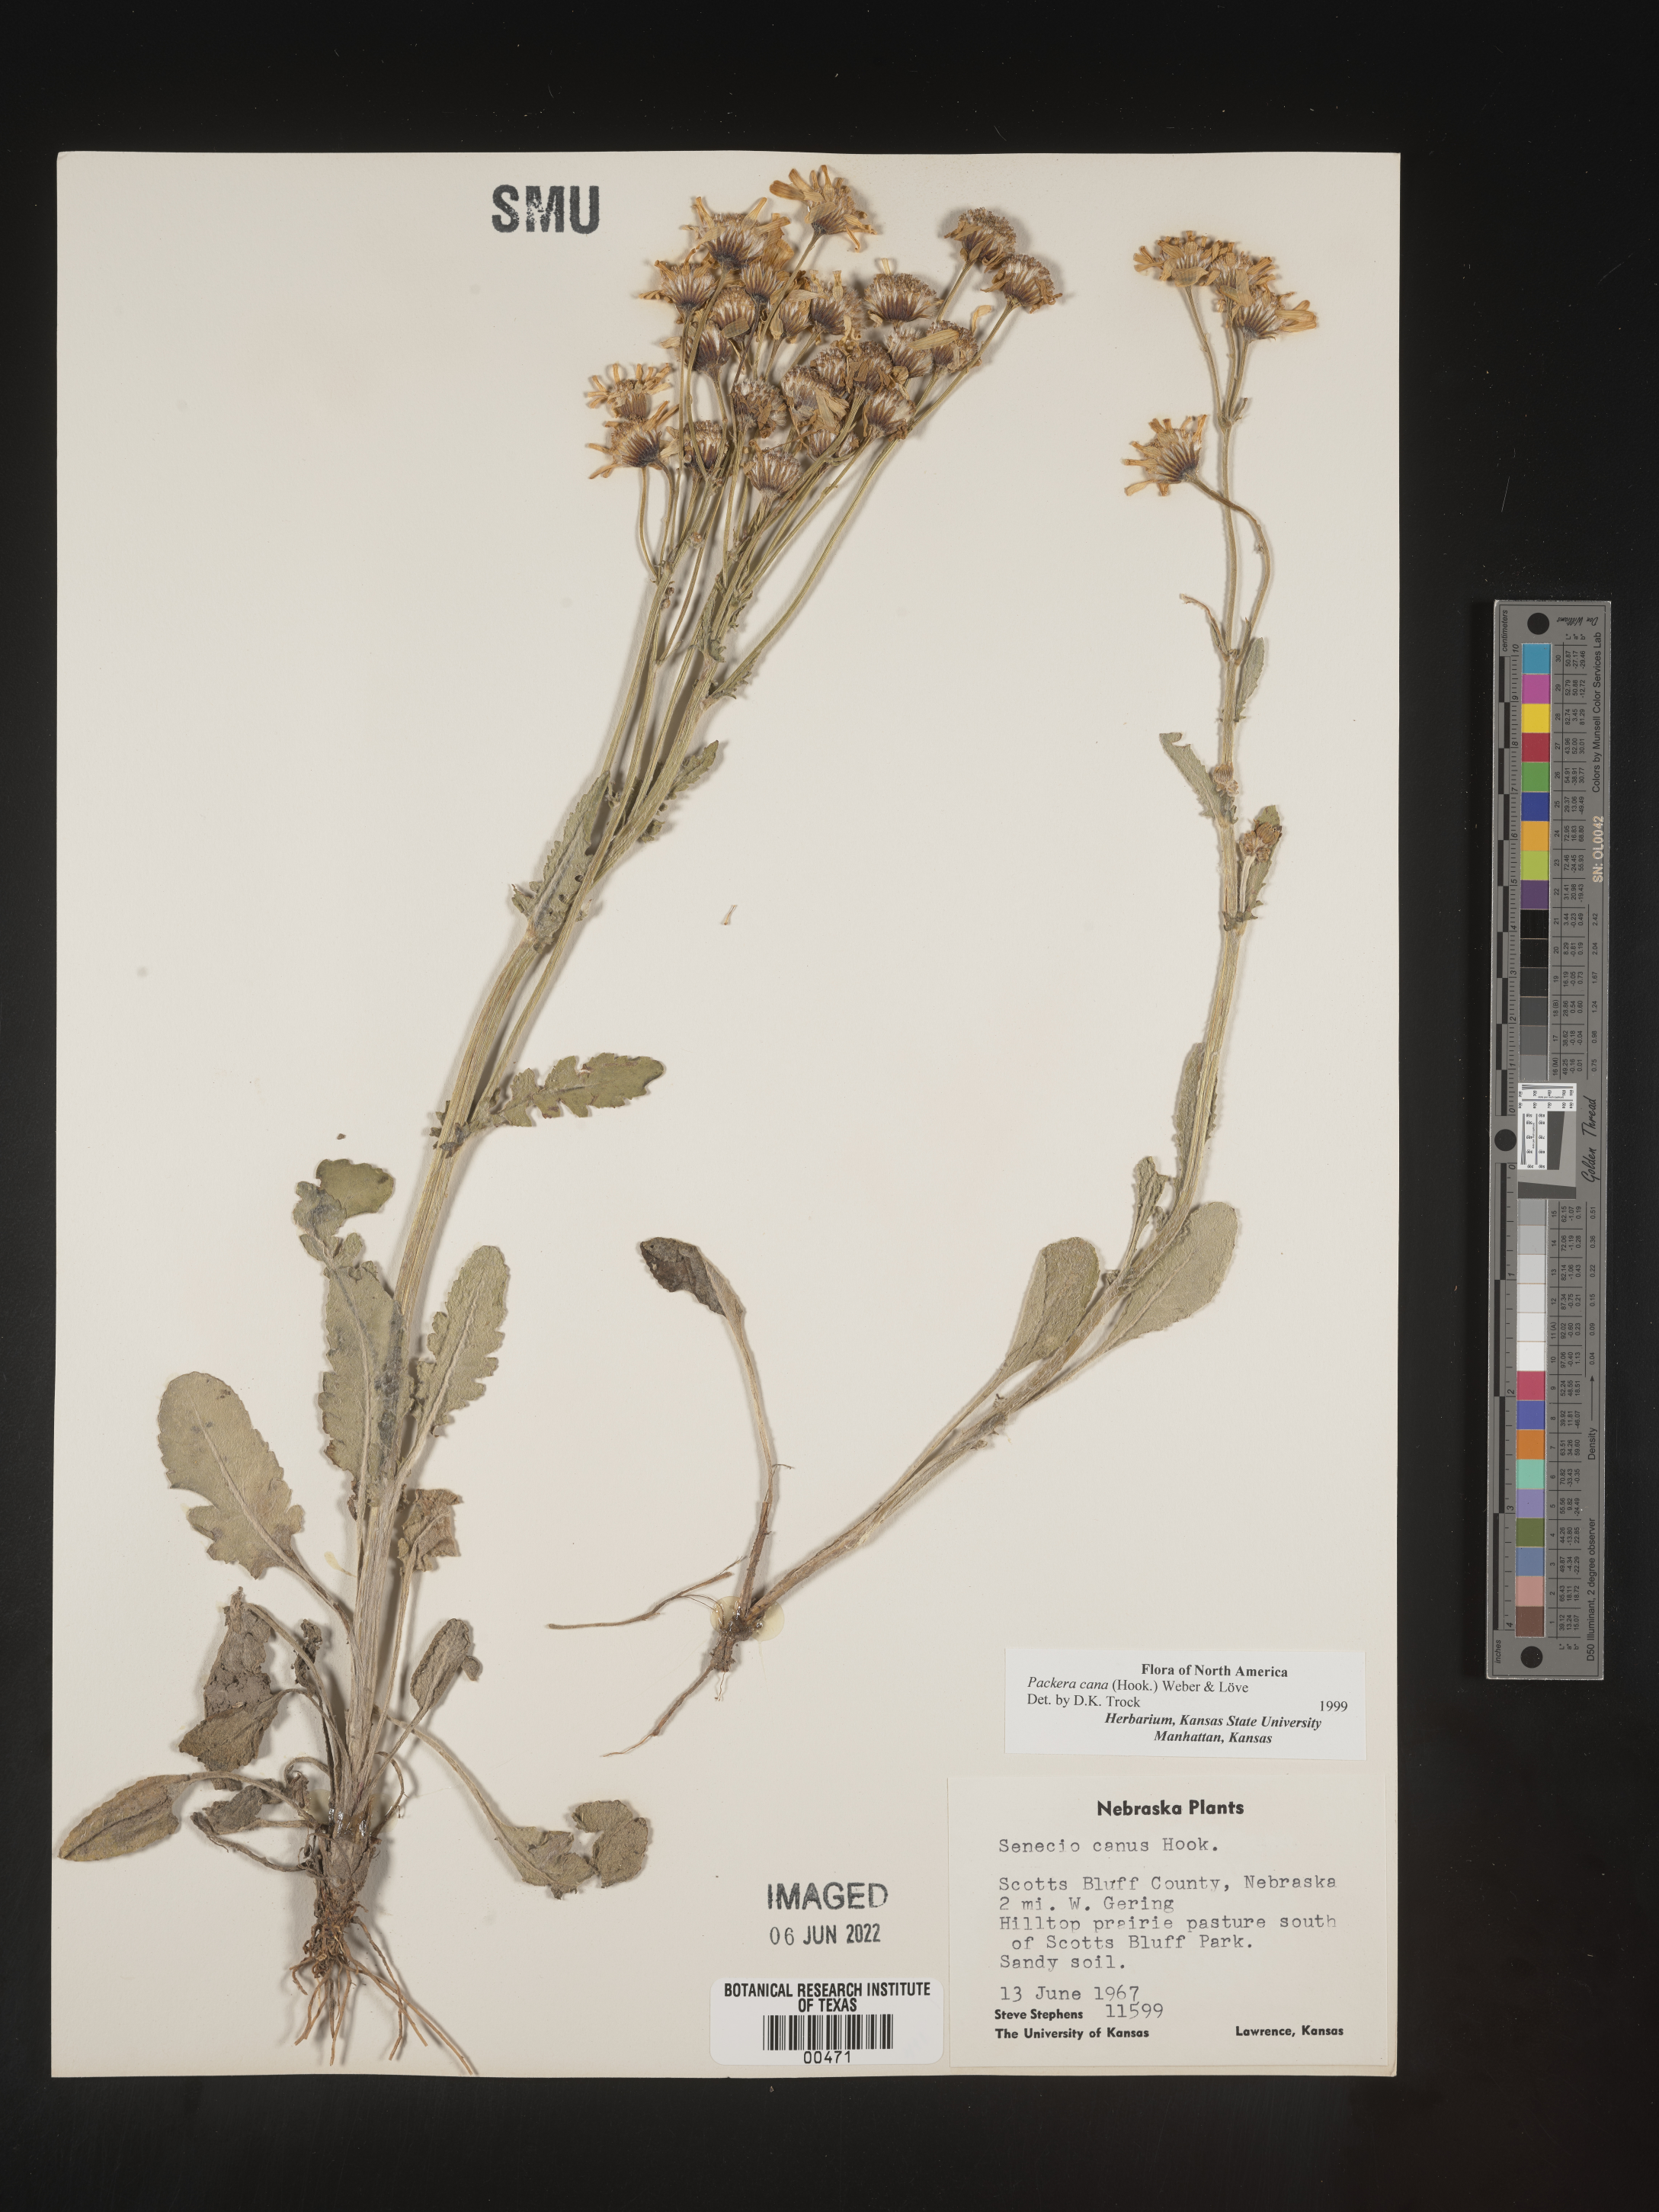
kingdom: Plantae
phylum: Tracheophyta
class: Magnoliopsida
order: Asterales
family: Asteraceae
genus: Packera
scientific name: Packera cana
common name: Woolly groundsel
